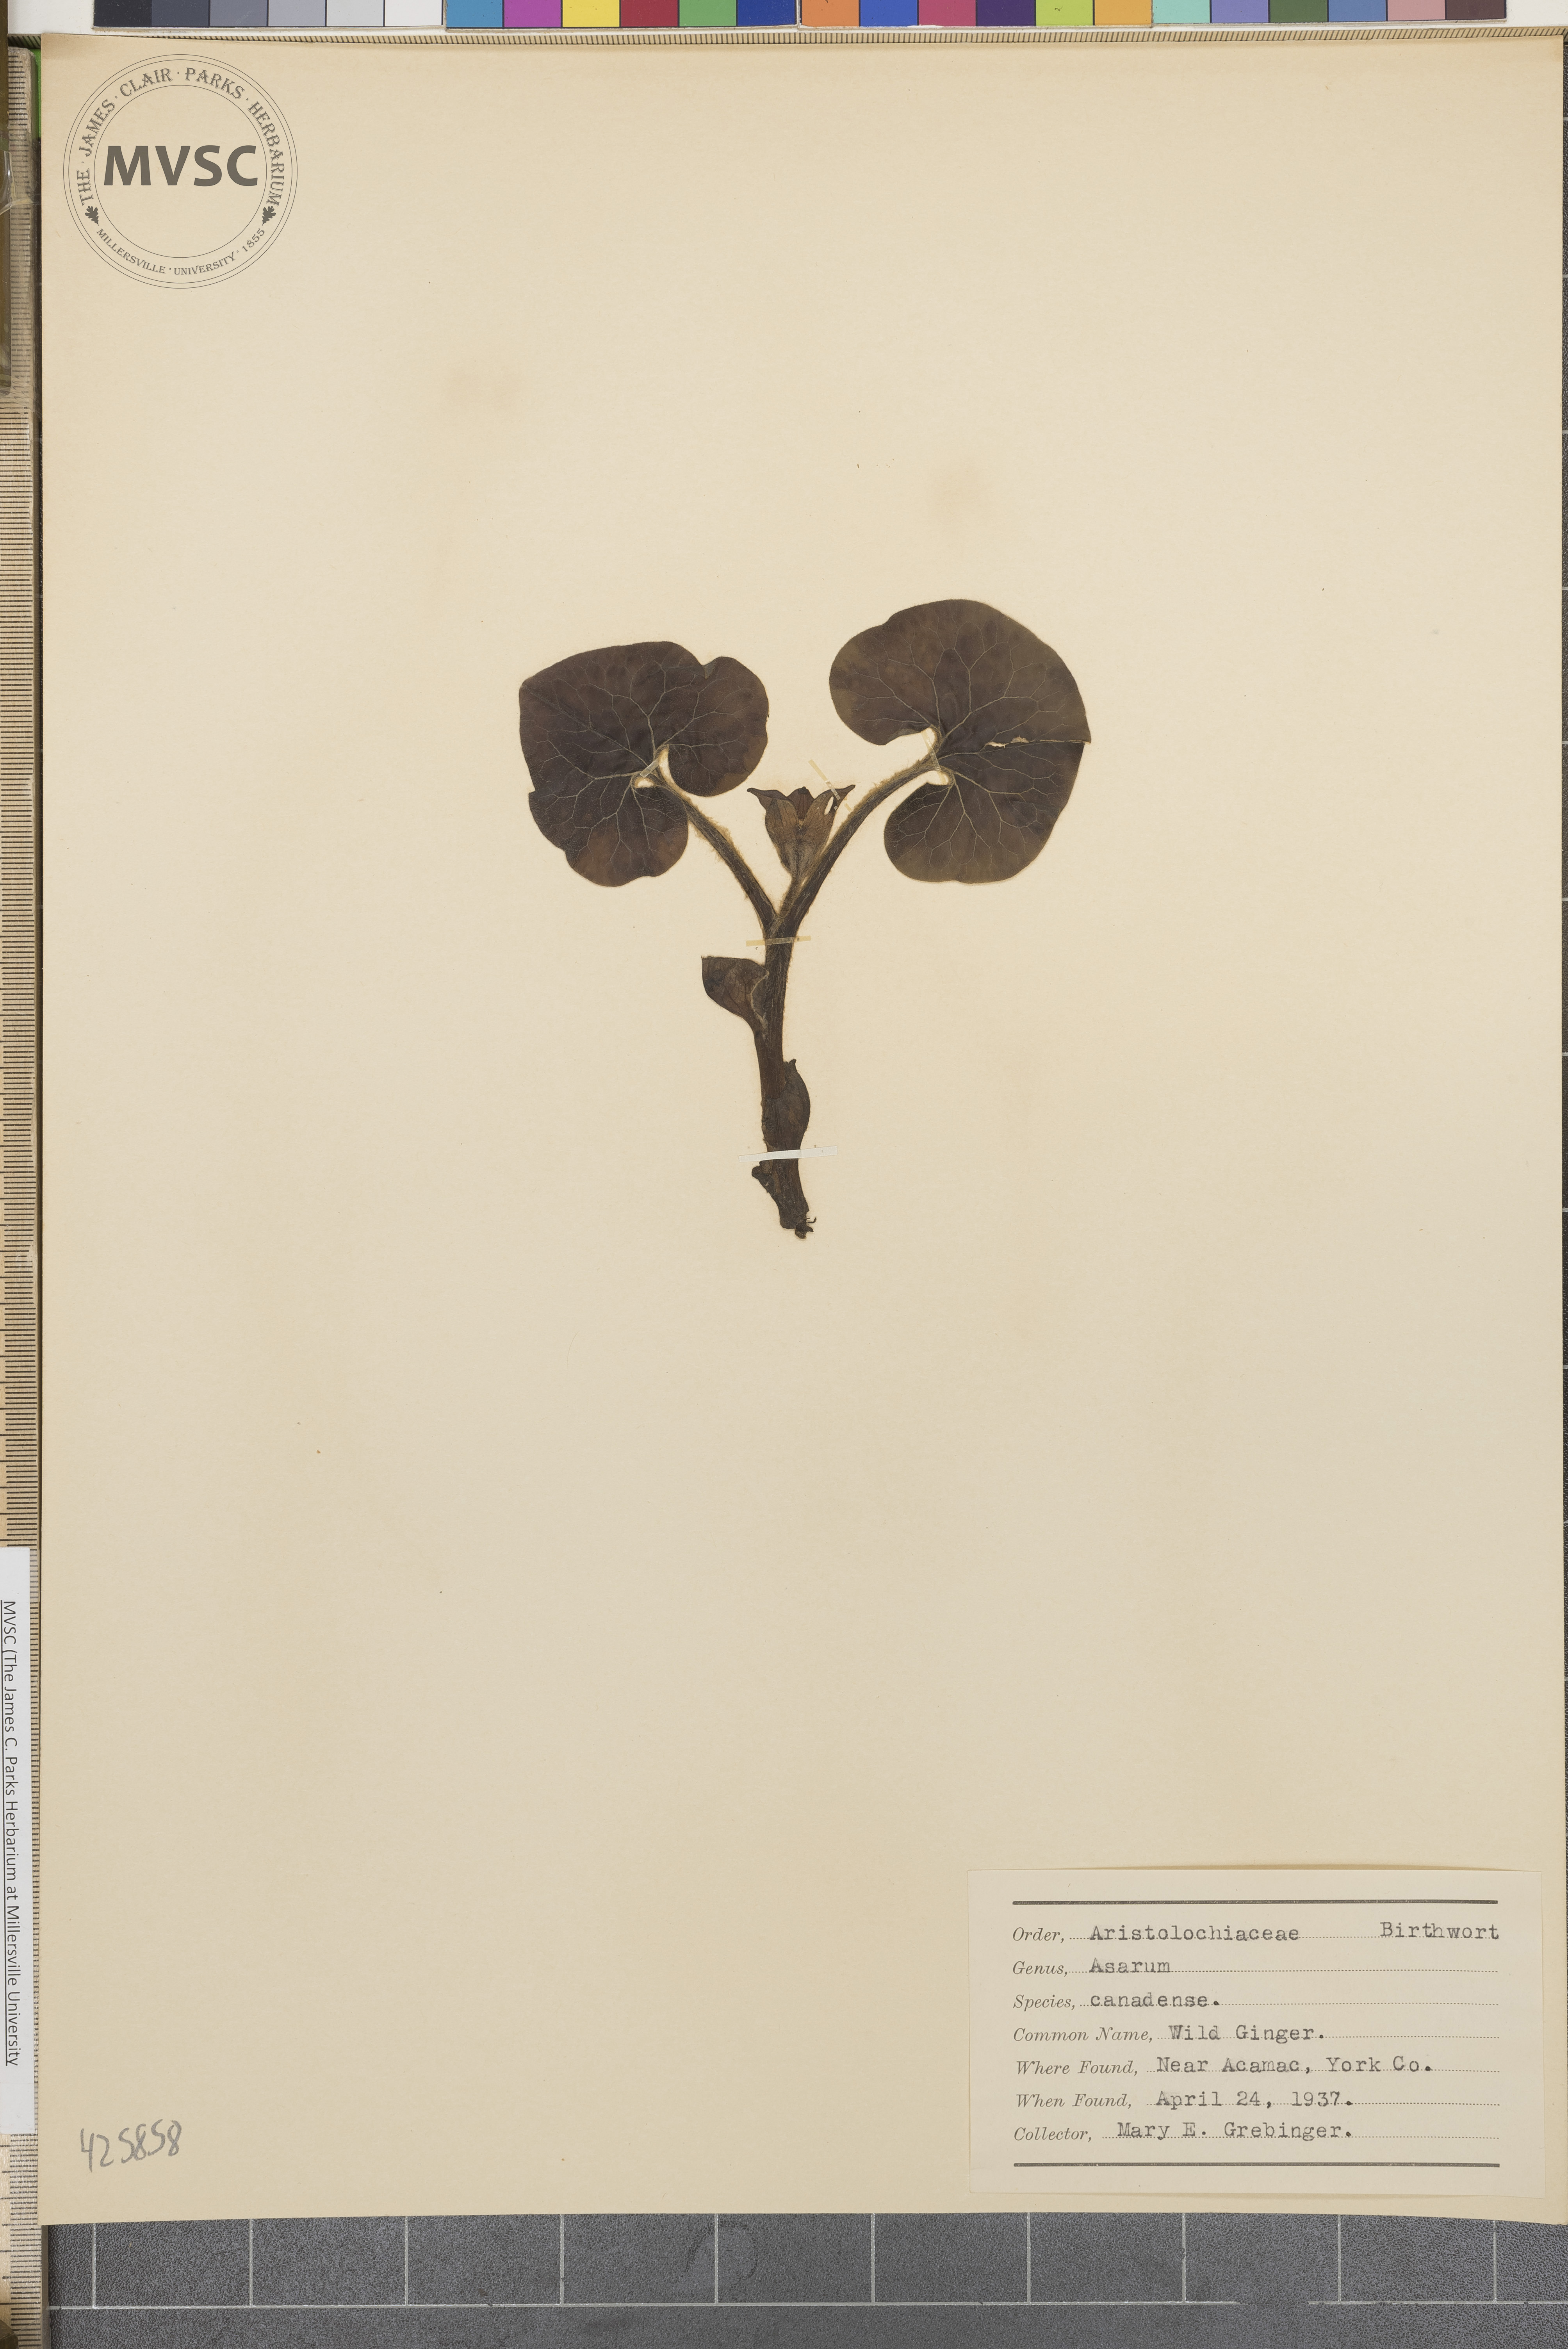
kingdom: Plantae
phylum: Tracheophyta
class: Magnoliopsida
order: Piperales
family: Aristolochiaceae
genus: Asarum
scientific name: Asarum canadense
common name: Wild Ginger
